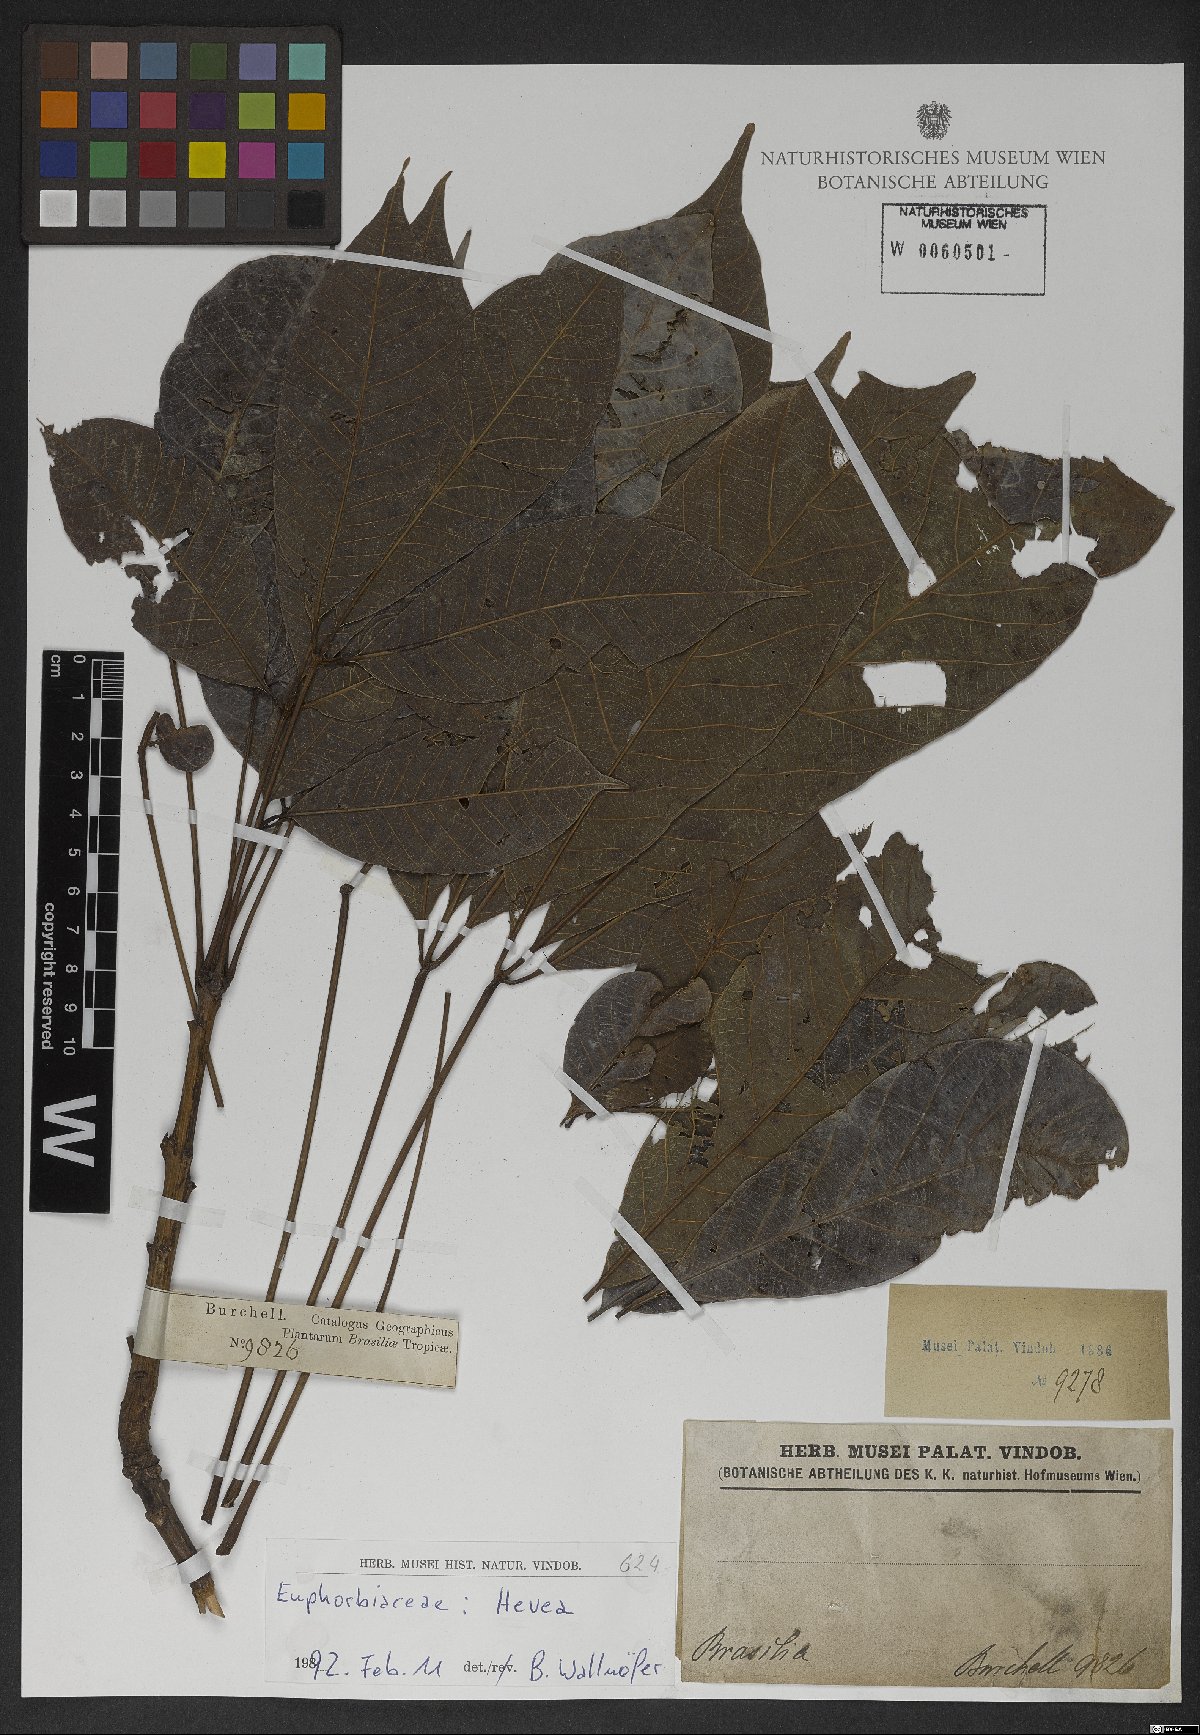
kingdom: Plantae
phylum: Tracheophyta
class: Magnoliopsida
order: Malpighiales
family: Euphorbiaceae
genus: Hevea
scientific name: Hevea
